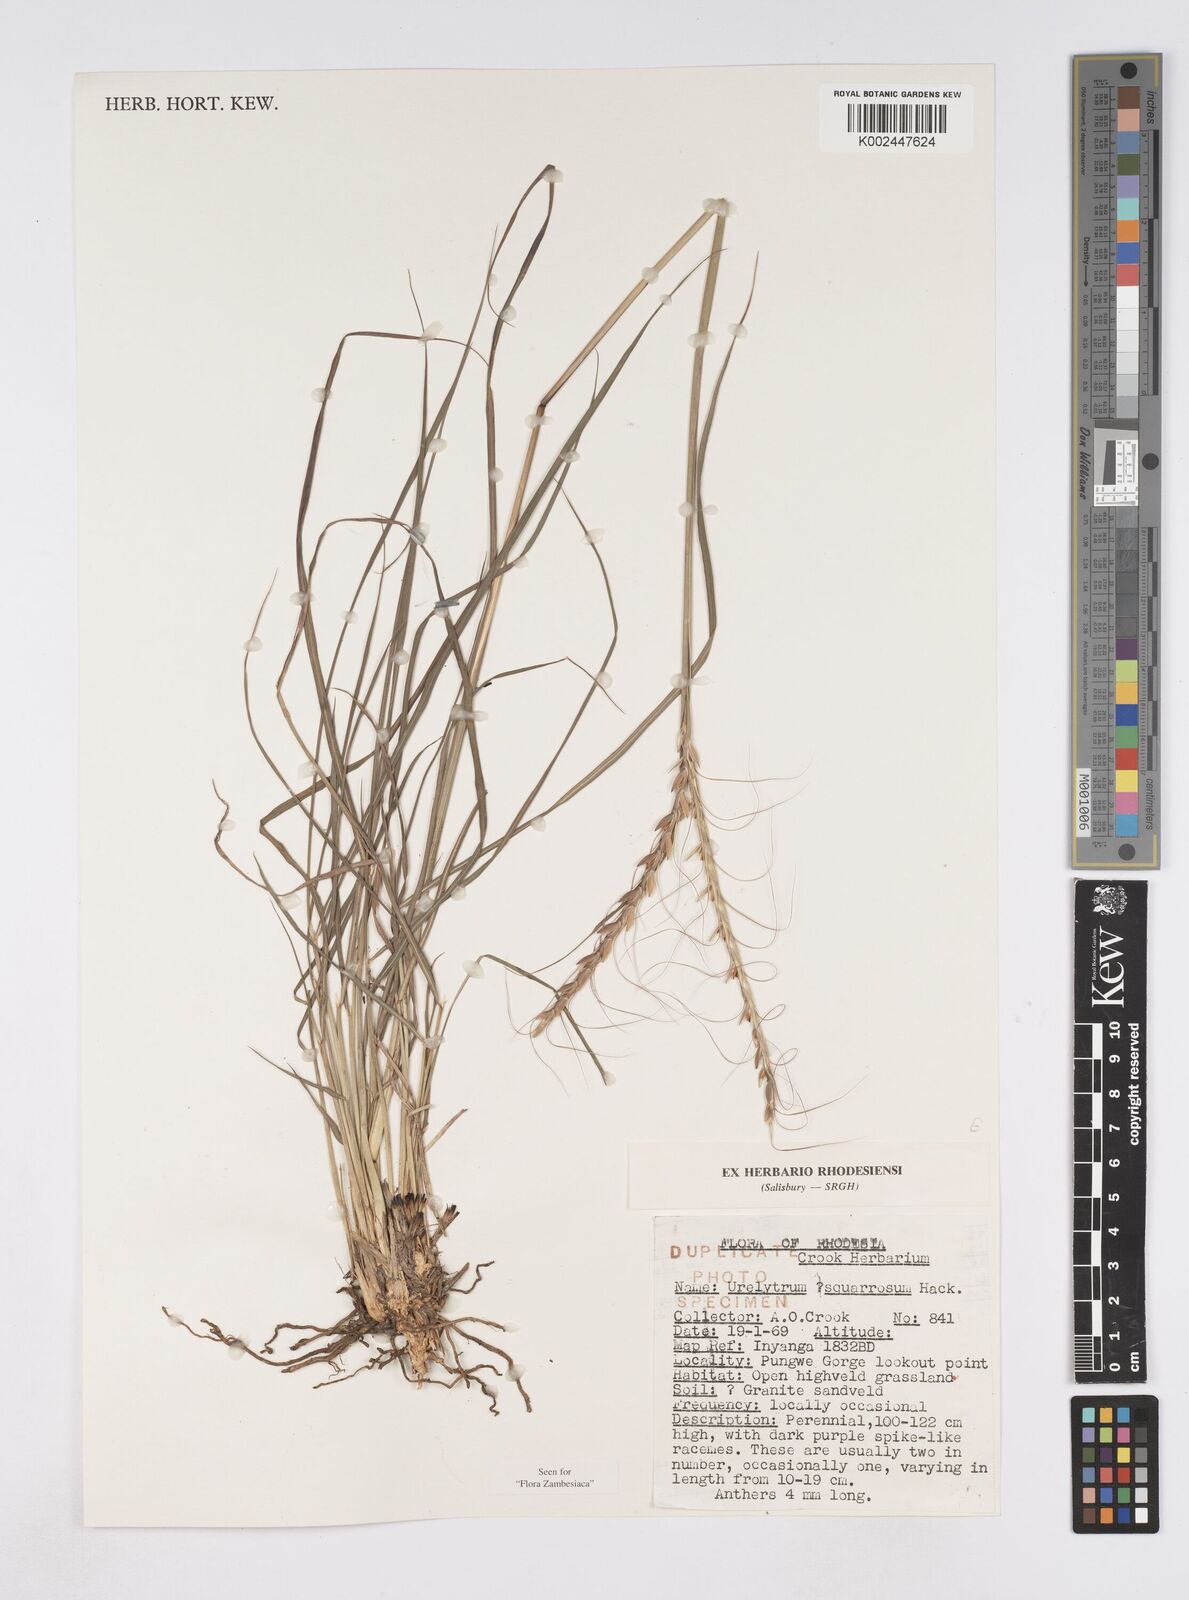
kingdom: Plantae
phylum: Tracheophyta
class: Liliopsida
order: Poales
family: Poaceae
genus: Urelytrum
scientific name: Urelytrum agropyroides
